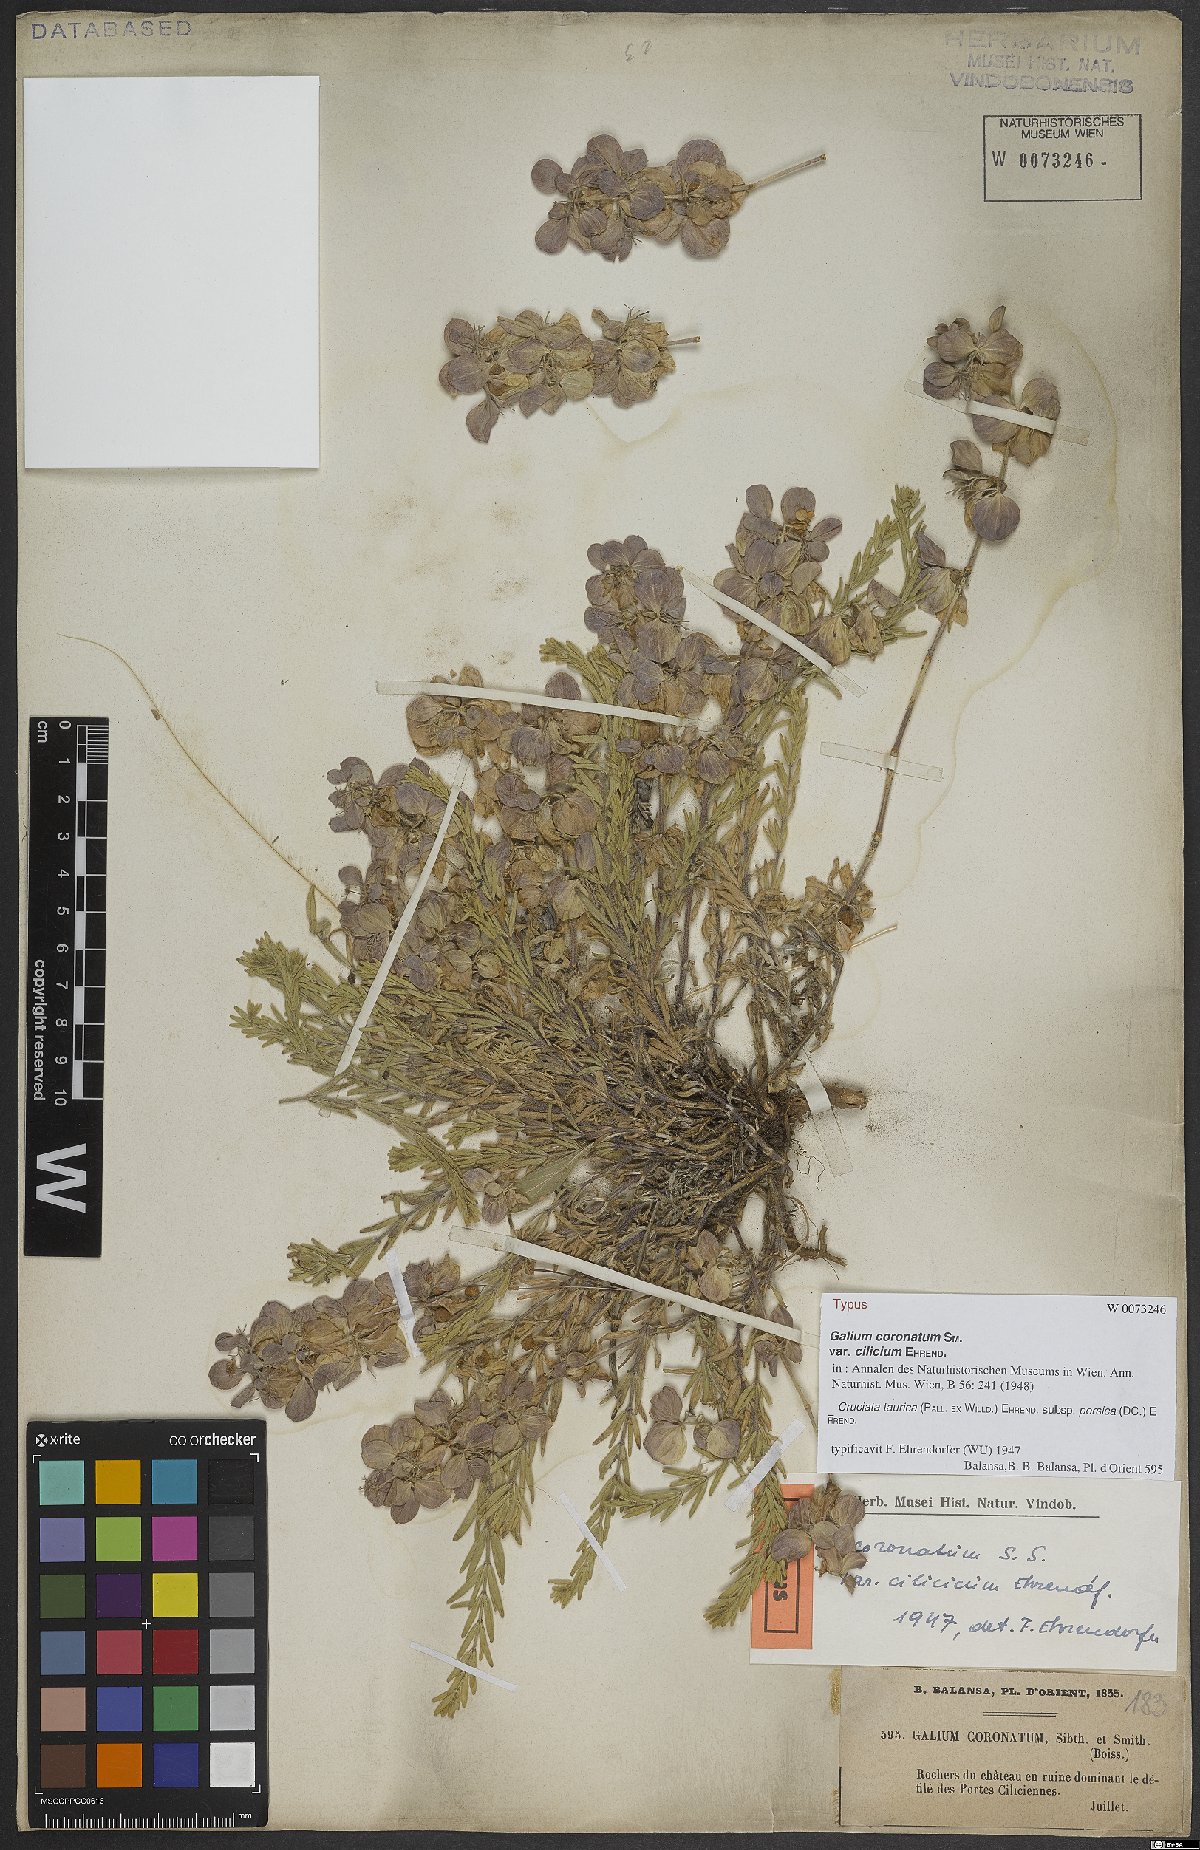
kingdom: Plantae
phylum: Tracheophyta
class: Magnoliopsida
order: Gentianales
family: Rubiaceae
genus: Cruciata
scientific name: Cruciata taurica
